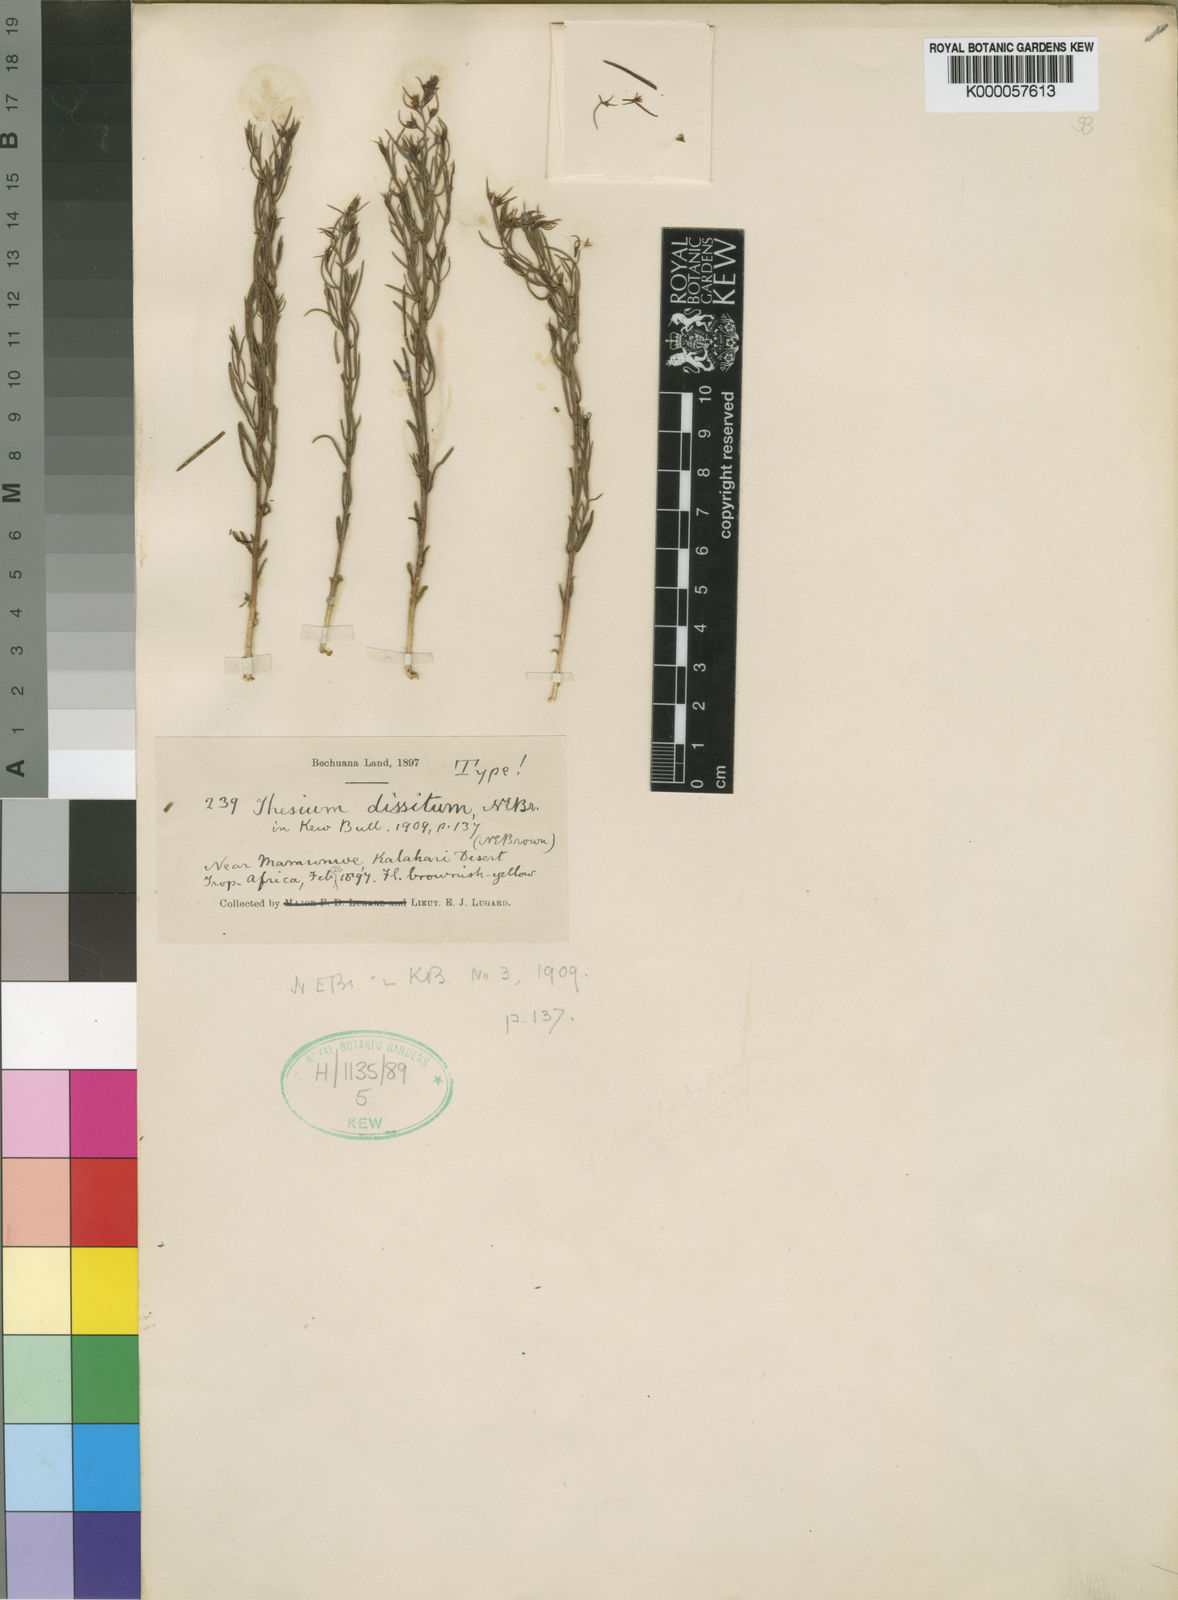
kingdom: Plantae
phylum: Tracheophyta
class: Magnoliopsida
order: Santalales
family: Thesiaceae
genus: Thesium
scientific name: Thesium dissitum
